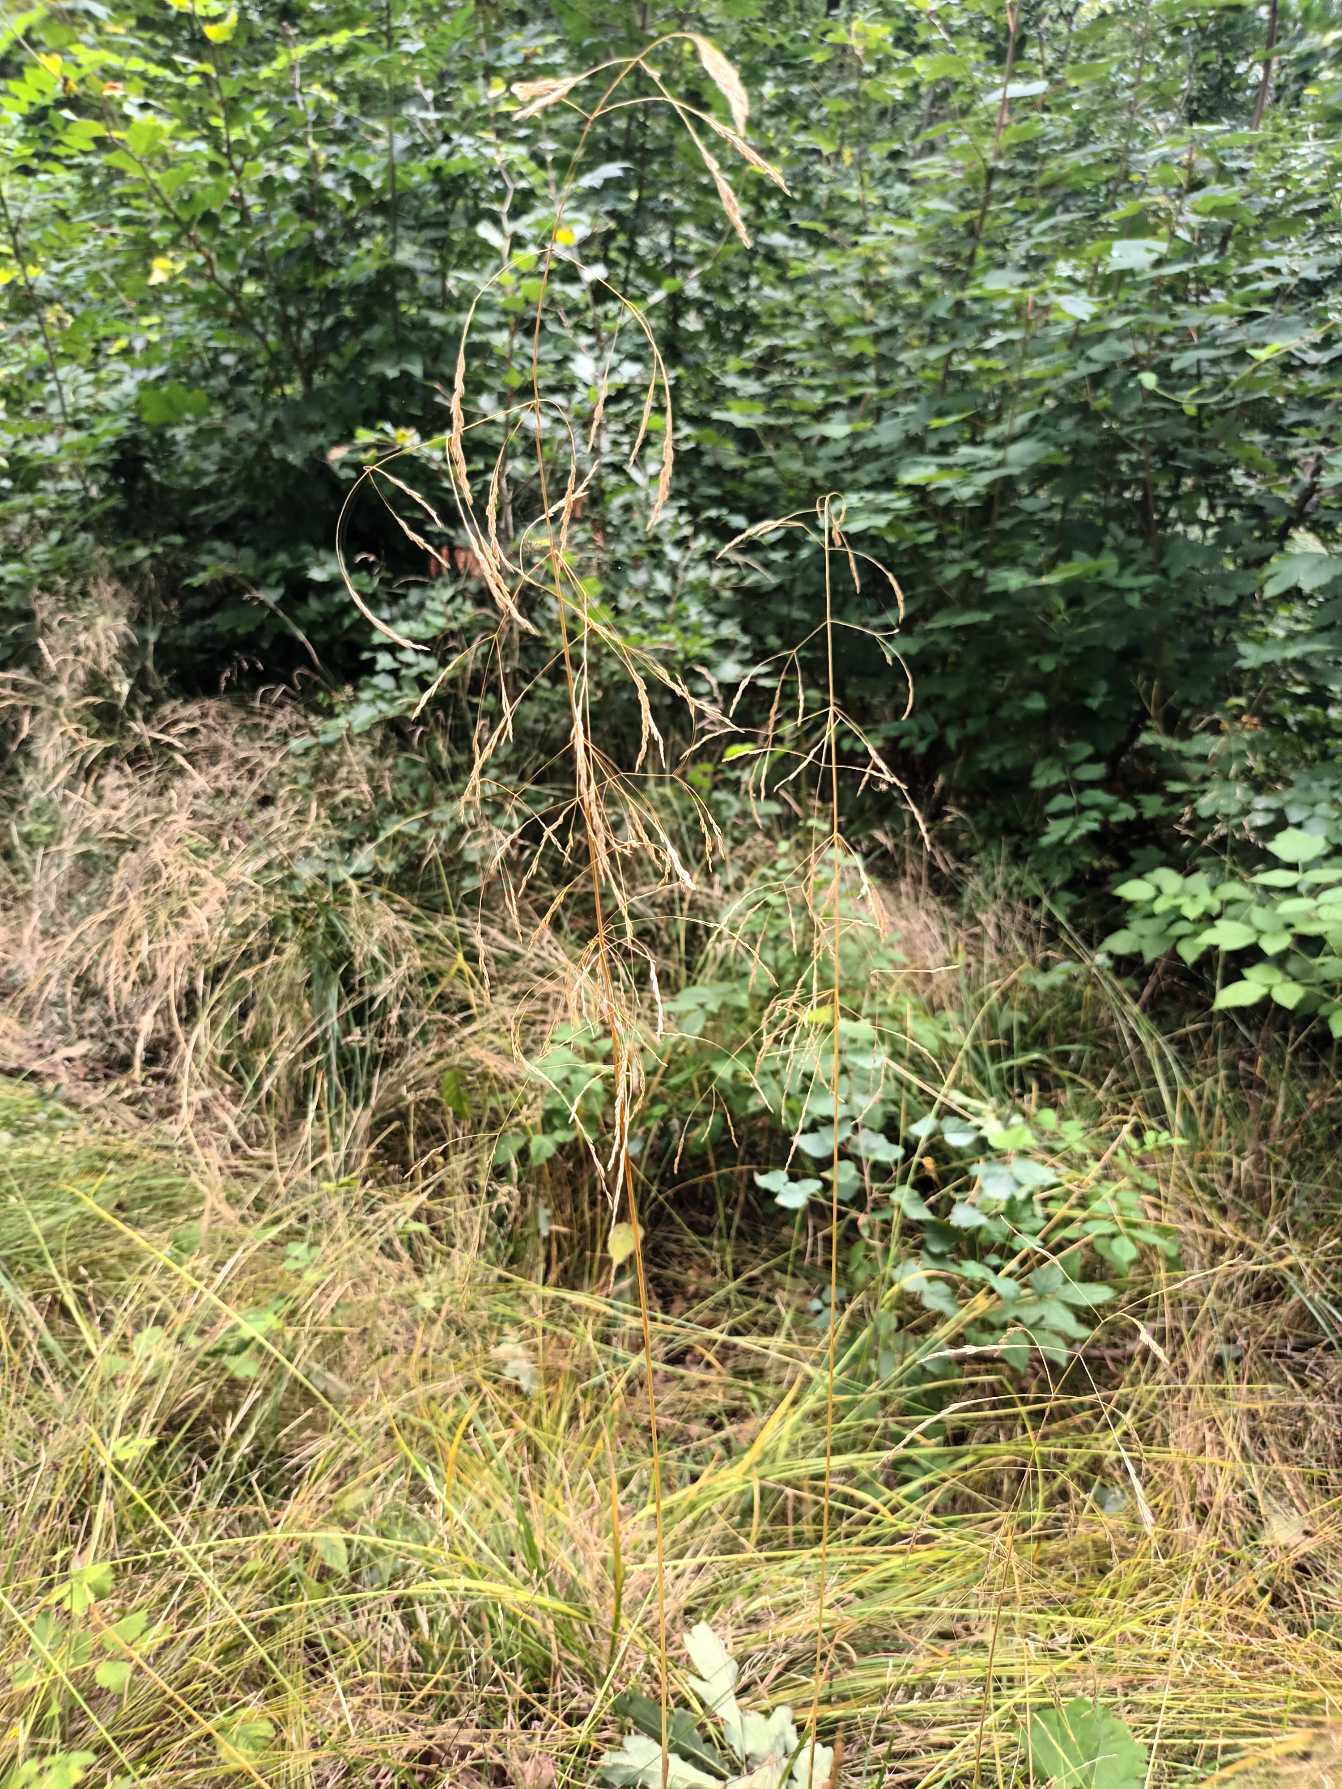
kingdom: Plantae
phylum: Tracheophyta
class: Liliopsida
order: Poales
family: Poaceae
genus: Deschampsia
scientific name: Deschampsia cespitosa
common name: Mose-bunke
